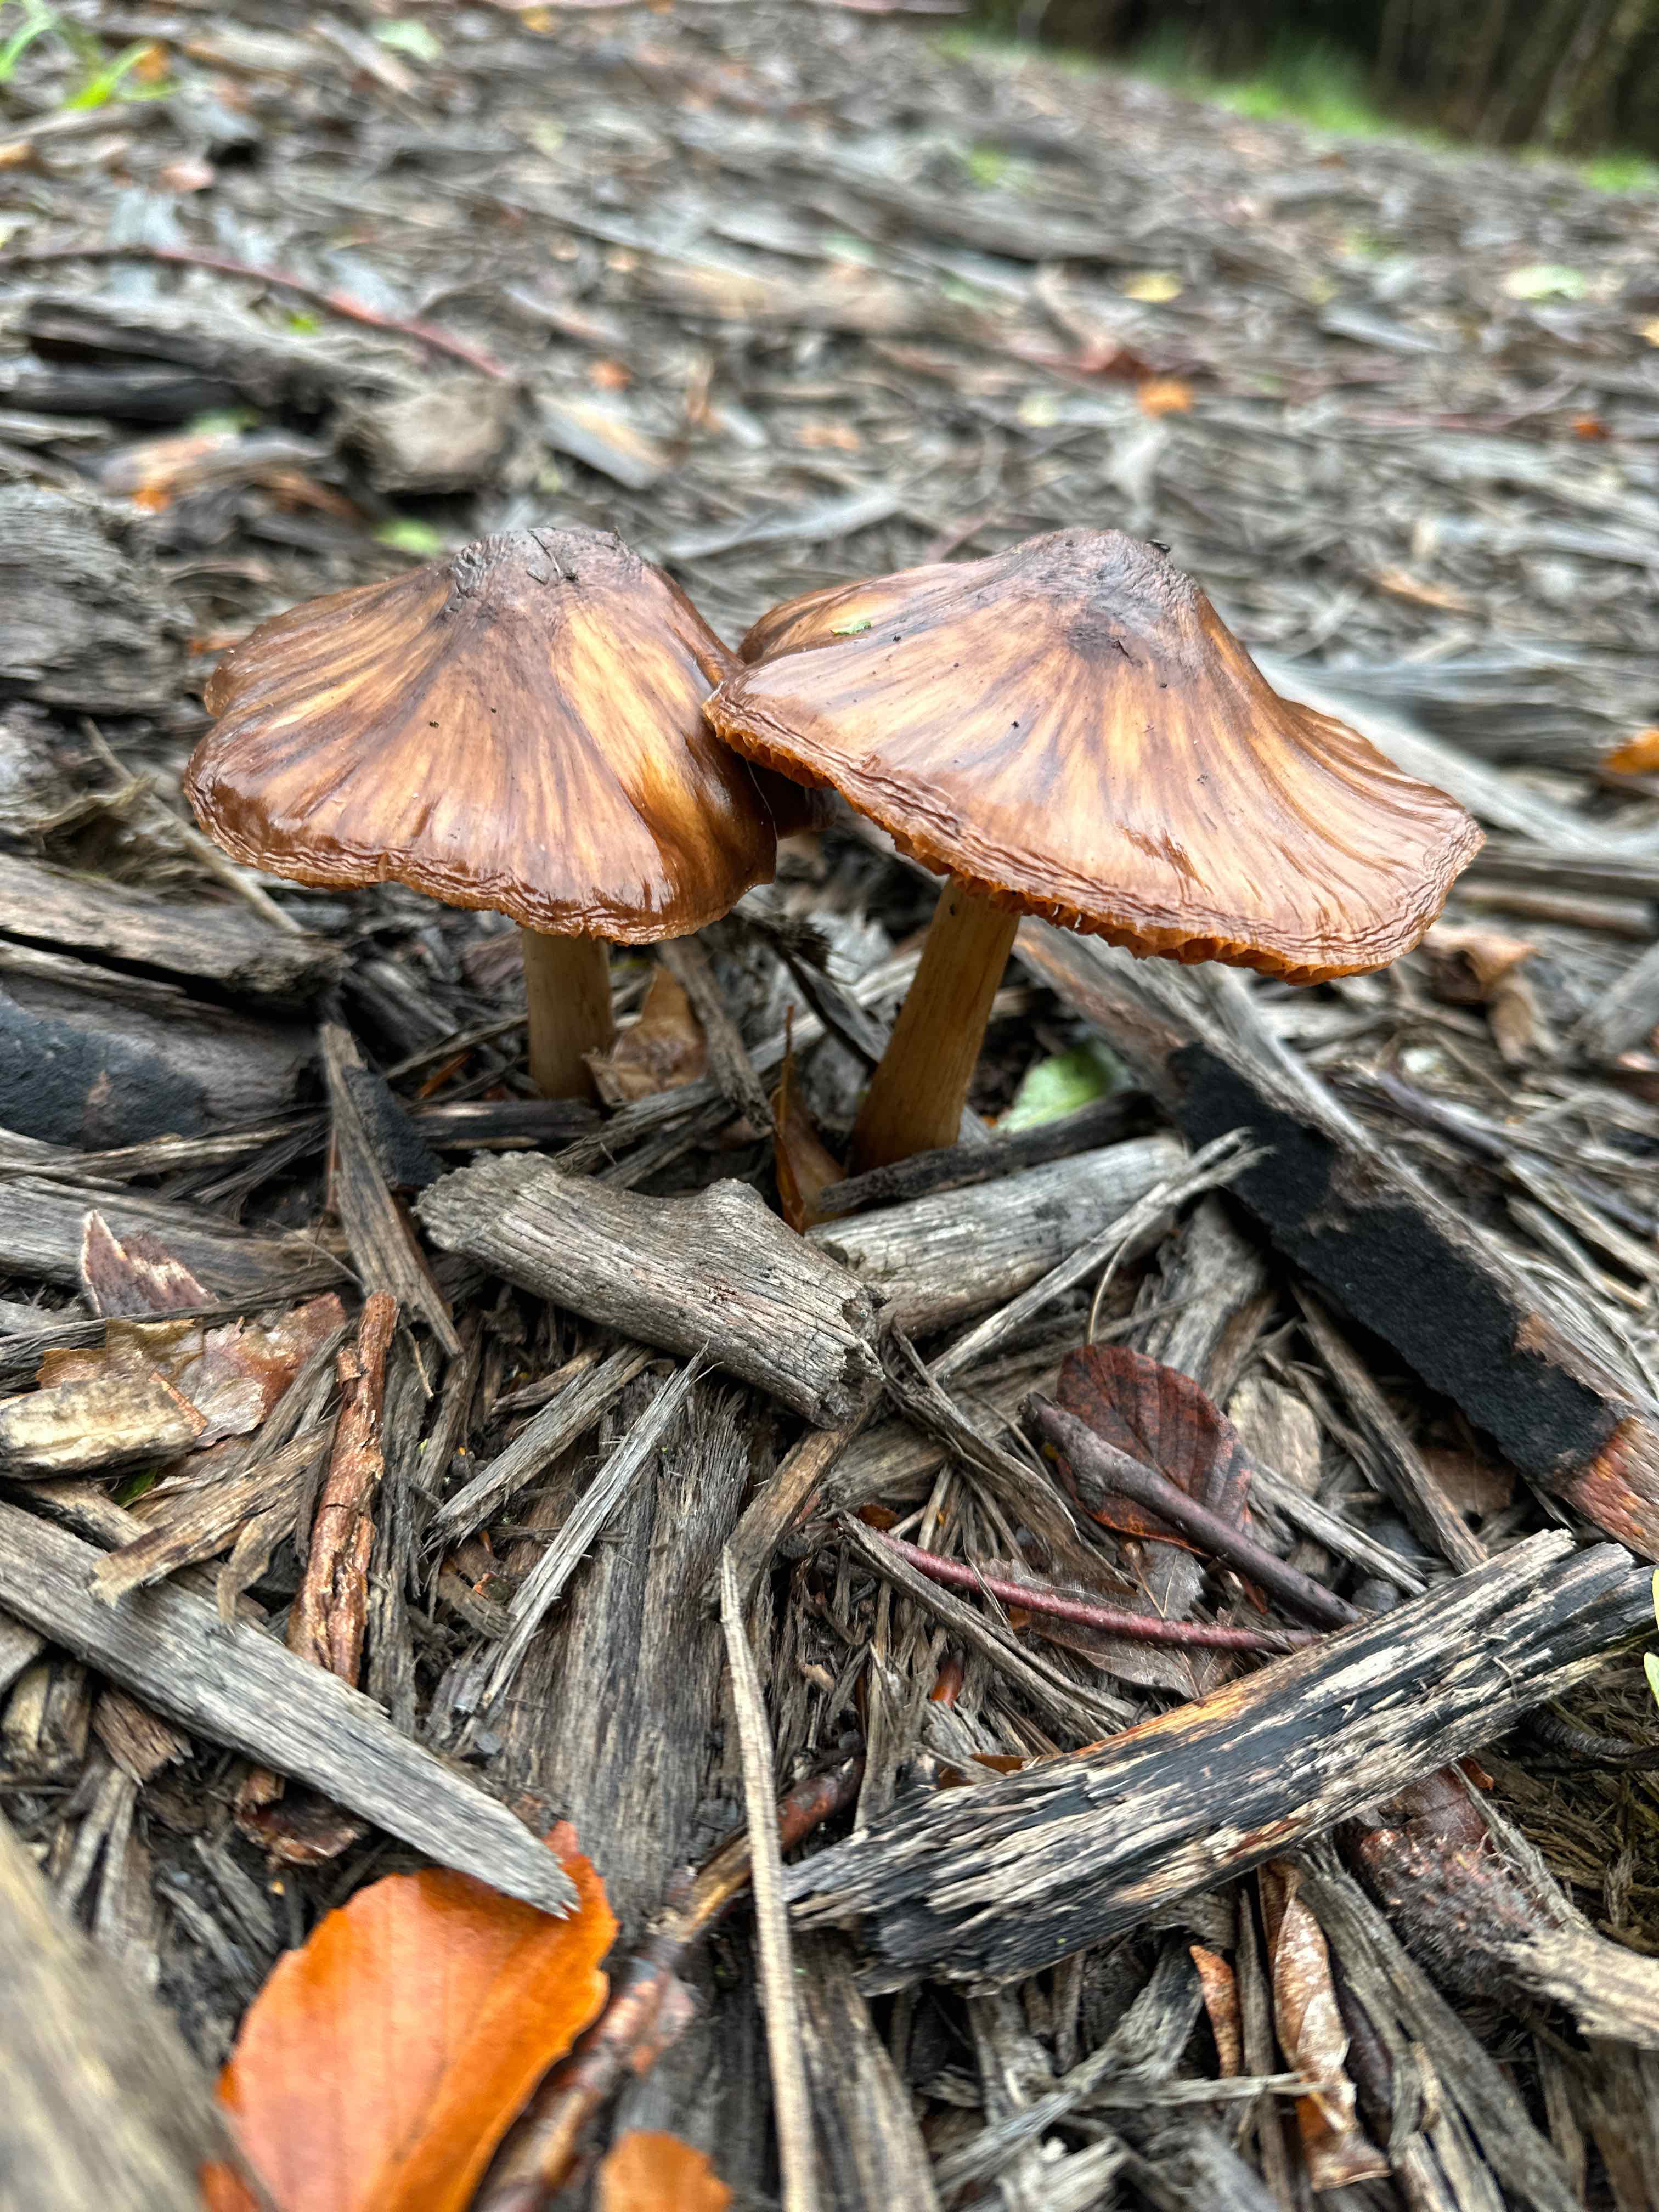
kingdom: Fungi
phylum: Basidiomycota
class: Agaricomycetes
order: Agaricales
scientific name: Agaricales
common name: champignonordenen
